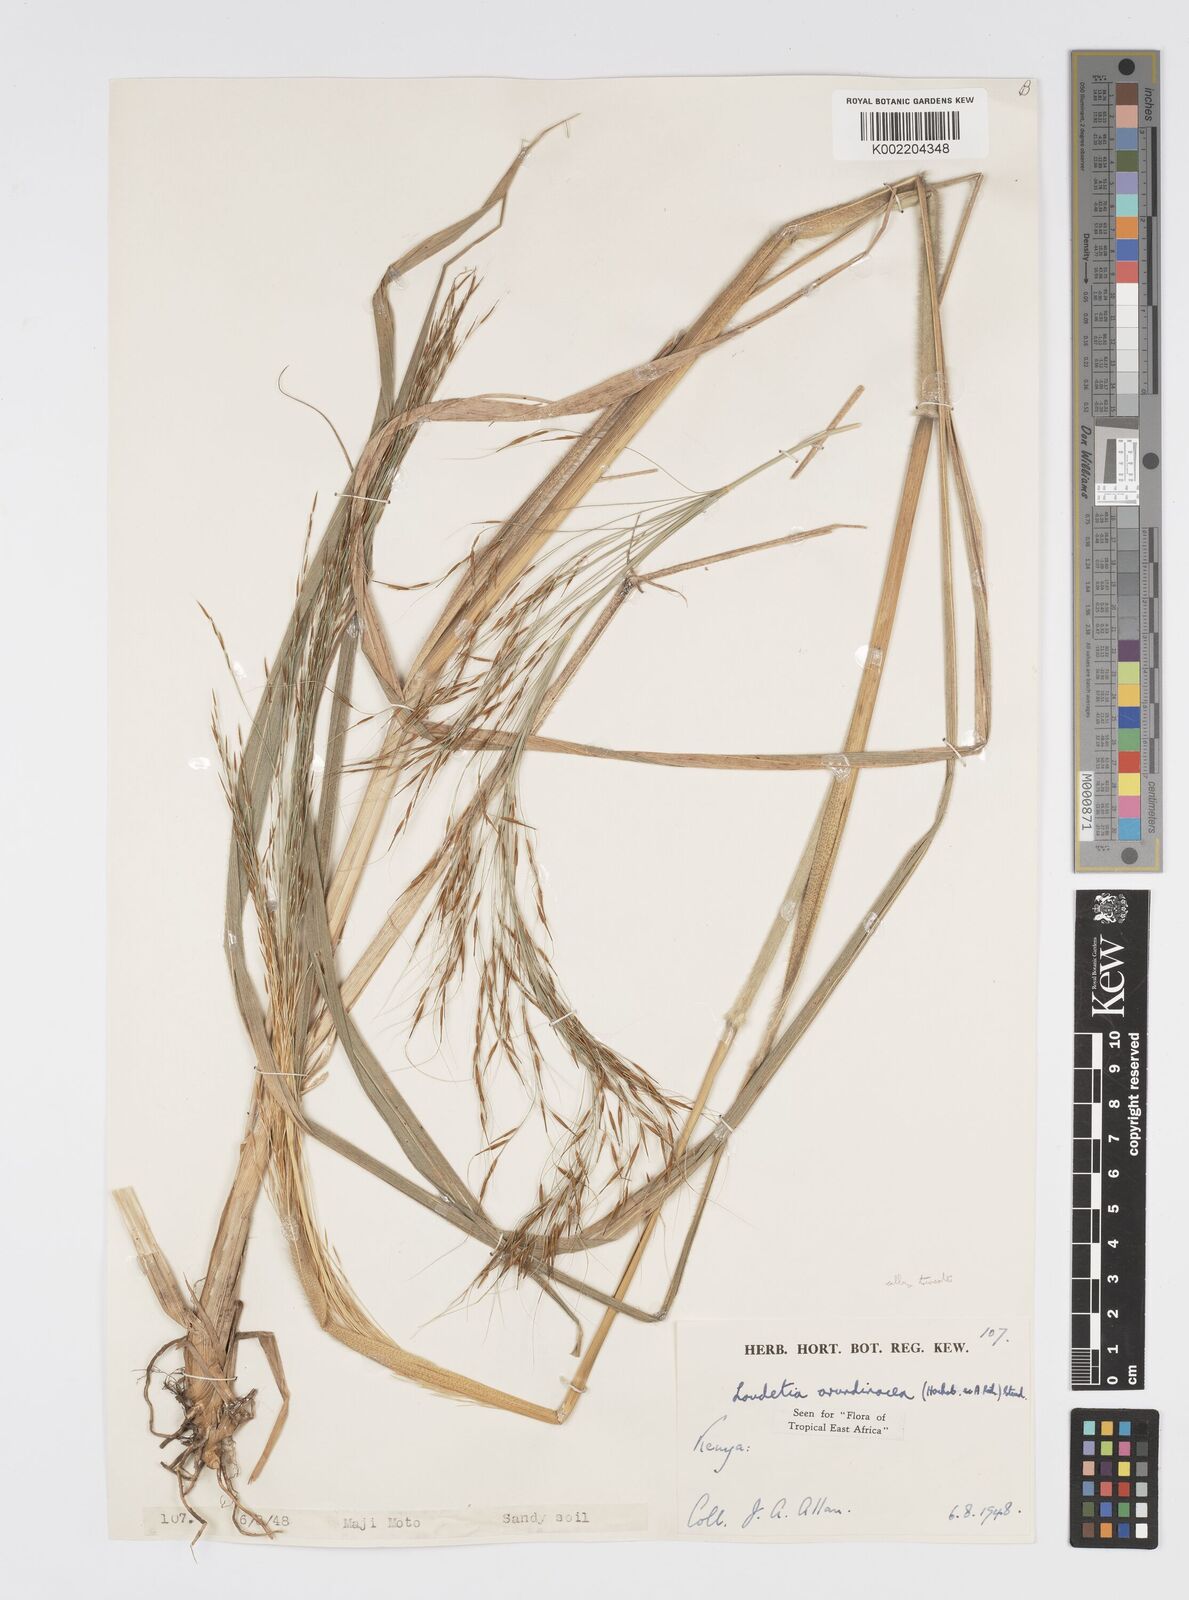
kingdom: Plantae
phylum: Tracheophyta
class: Liliopsida
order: Poales
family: Poaceae
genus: Loudetia
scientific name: Loudetia arundinacea
